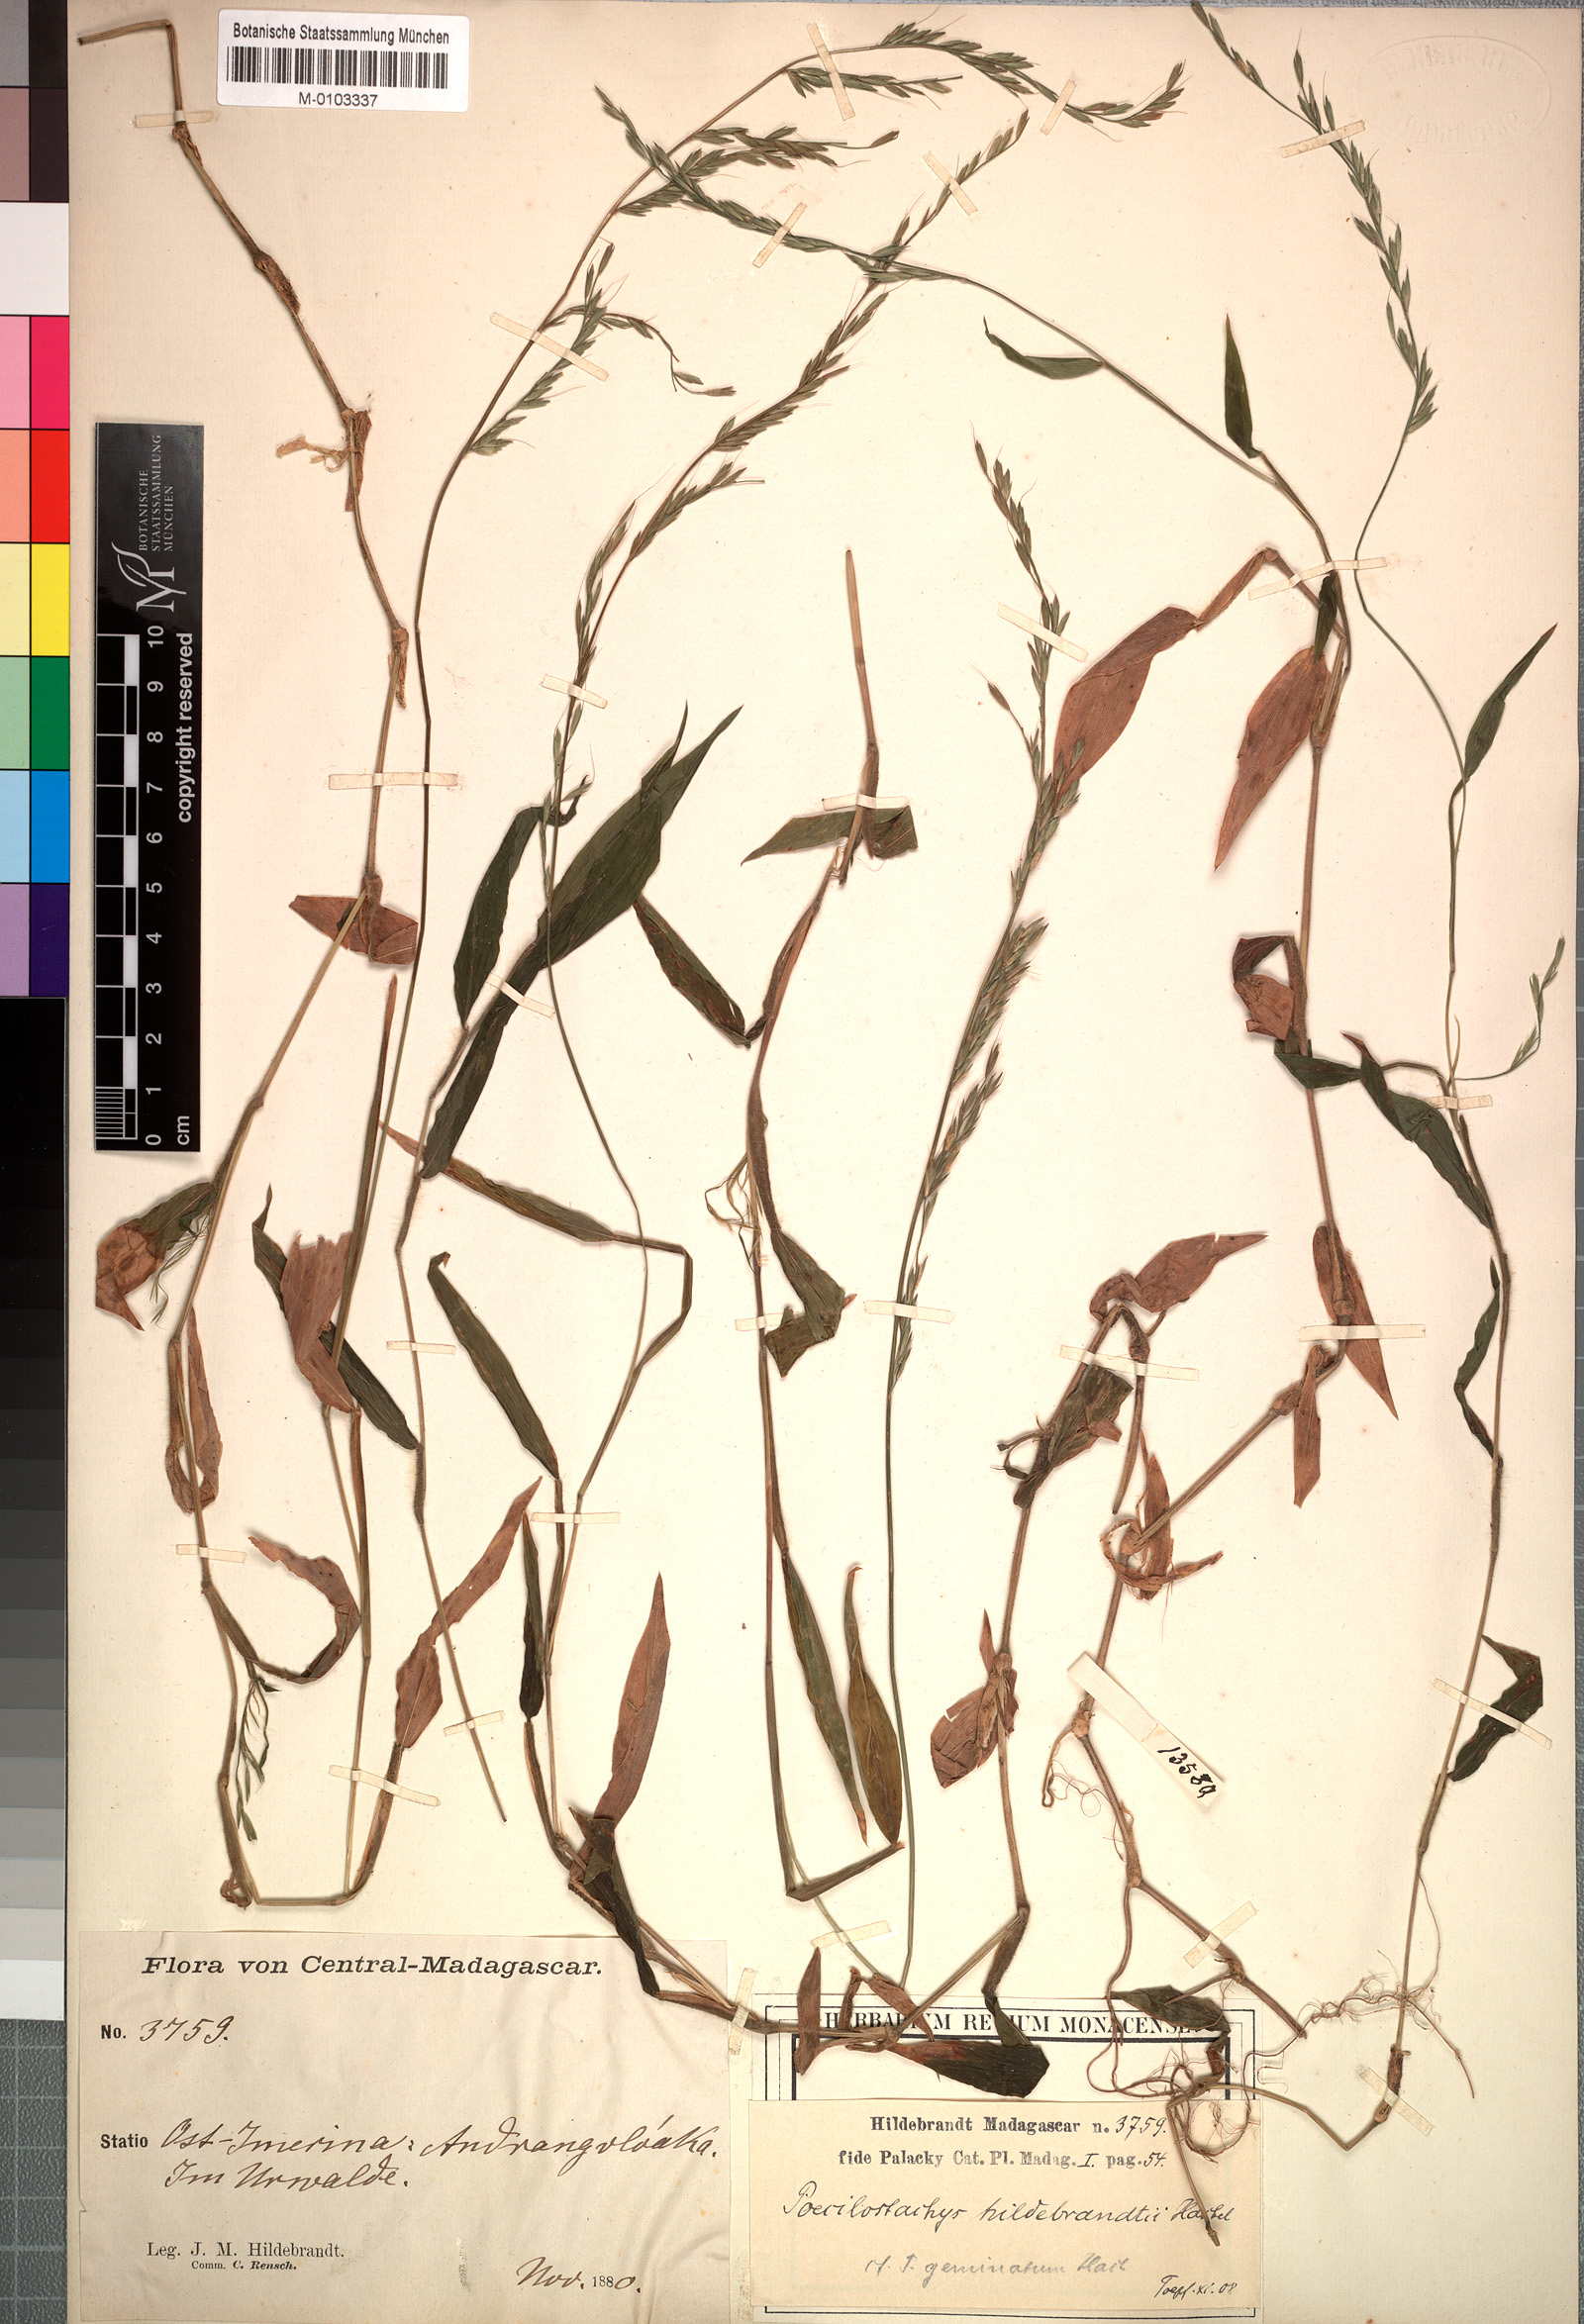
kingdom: Plantae
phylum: Tracheophyta
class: Liliopsida
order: Poales
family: Poaceae
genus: Poecilostachys
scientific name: Poecilostachys hildebrandtii
